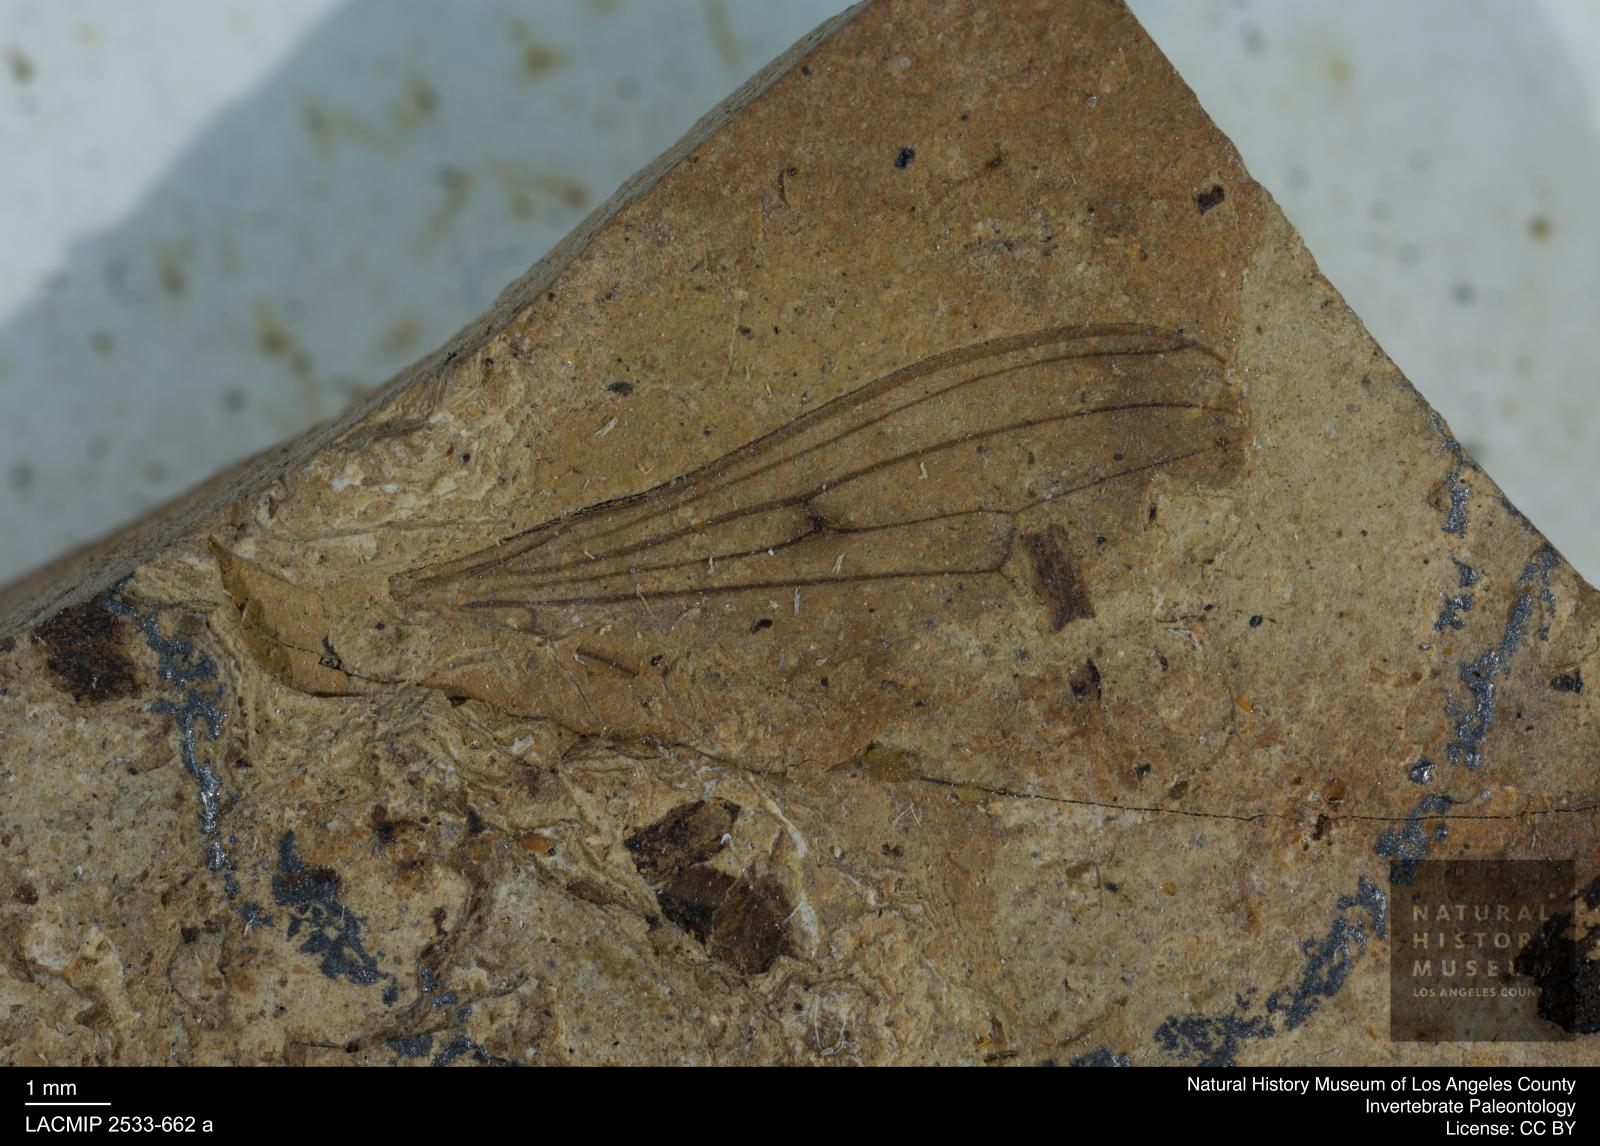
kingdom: Animalia
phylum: Arthropoda
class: Insecta
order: Diptera
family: Micropezidae
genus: Calobata
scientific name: Calobata rottensis
